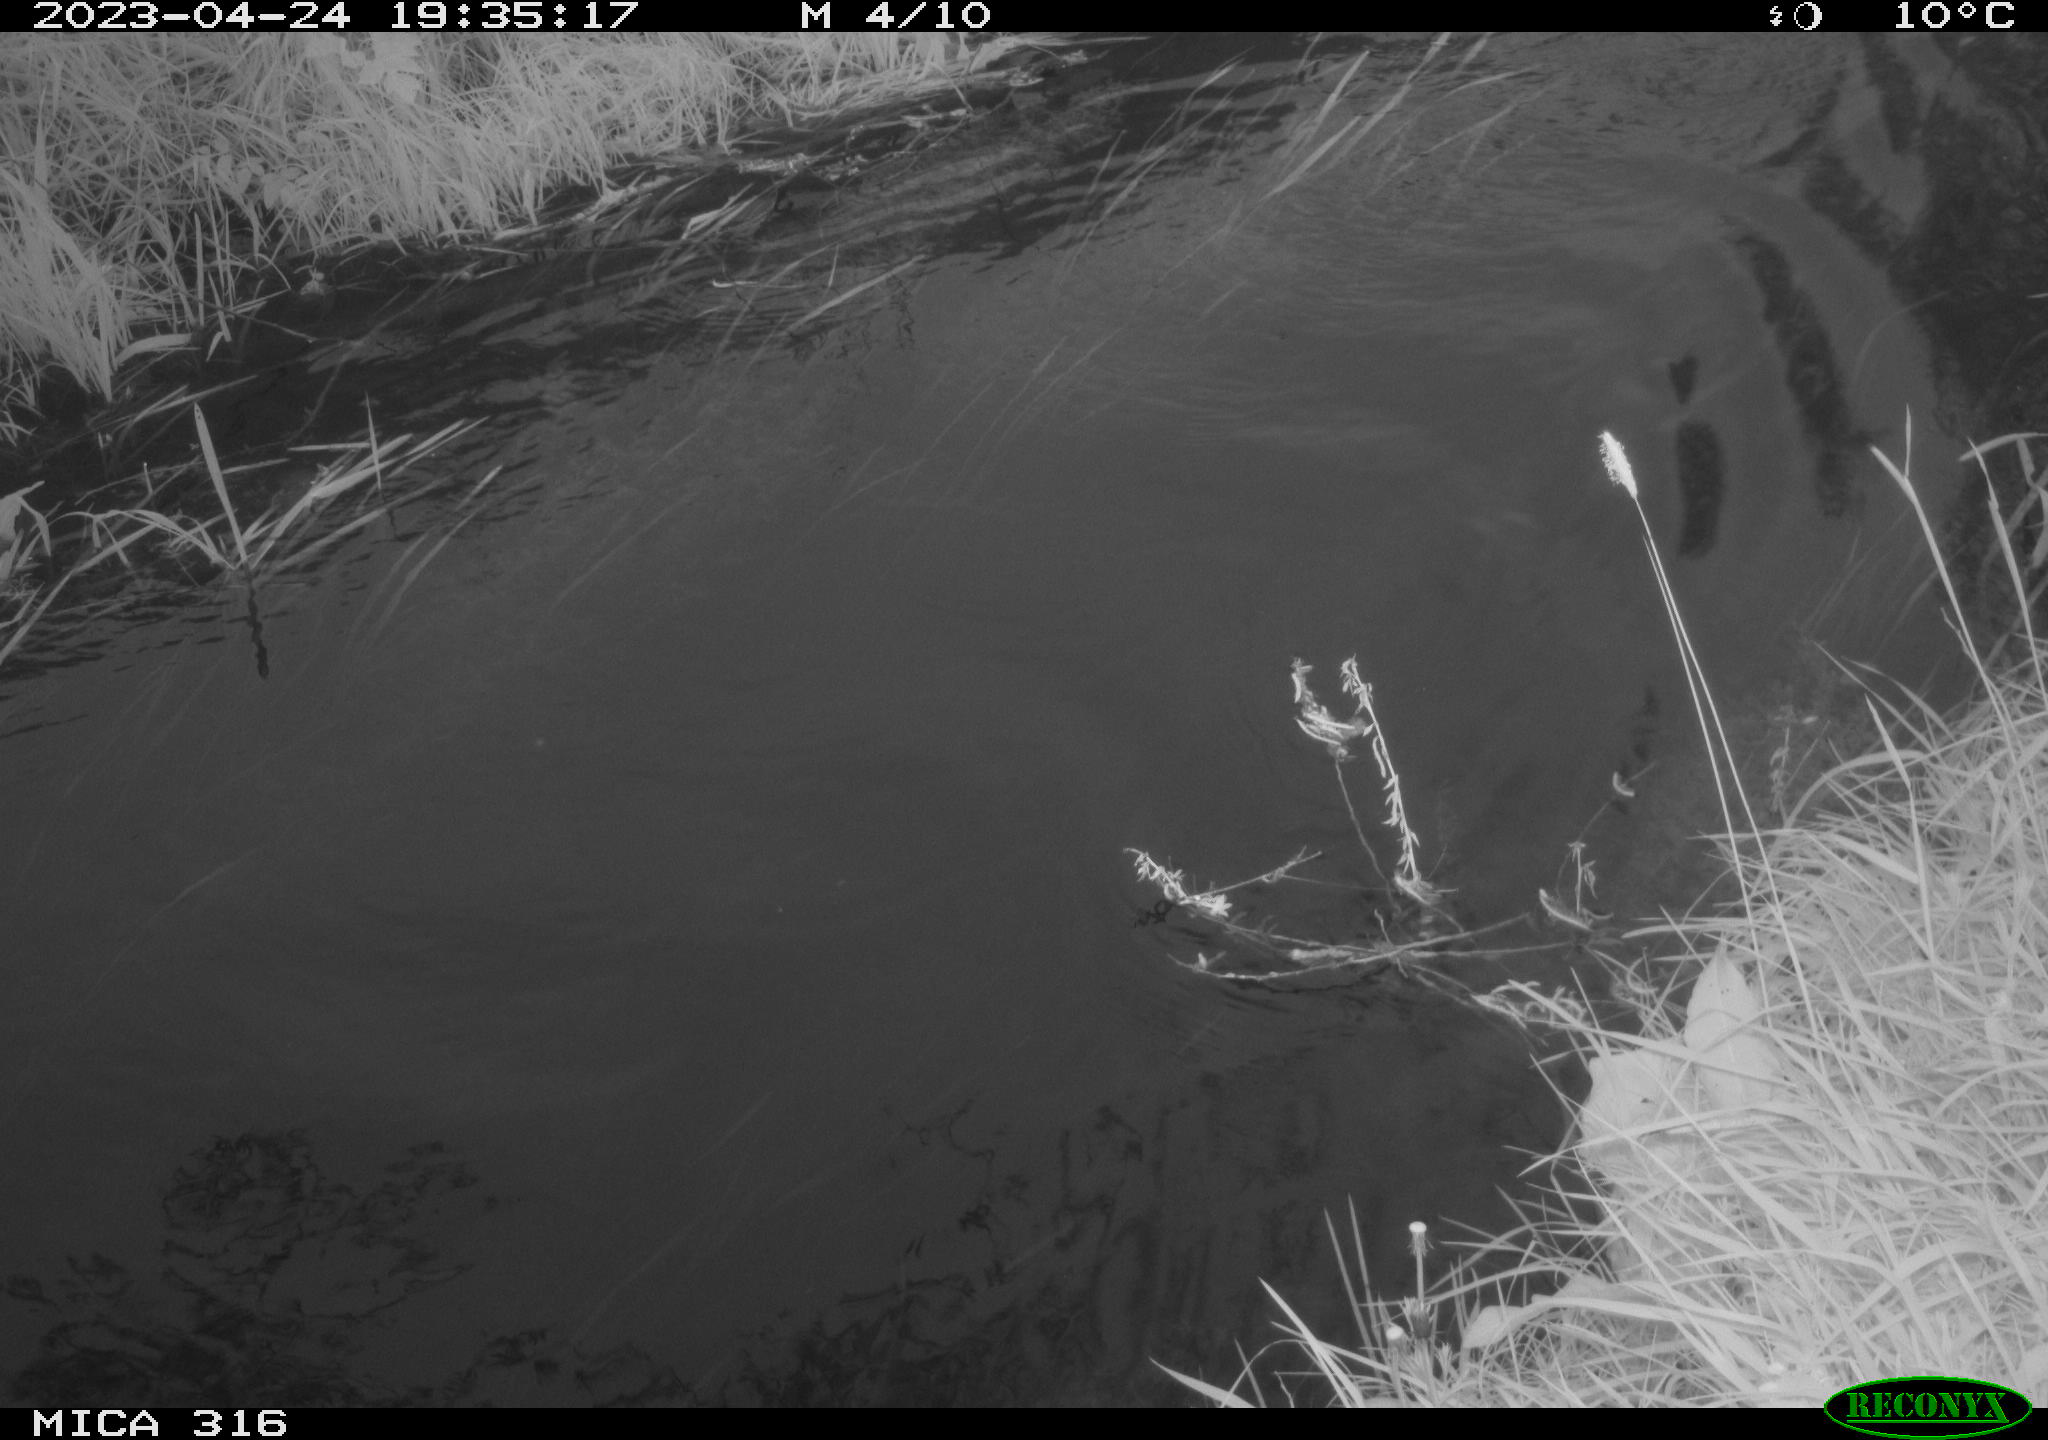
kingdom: Animalia
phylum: Chordata
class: Aves
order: Anseriformes
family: Anatidae
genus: Anas
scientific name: Anas
